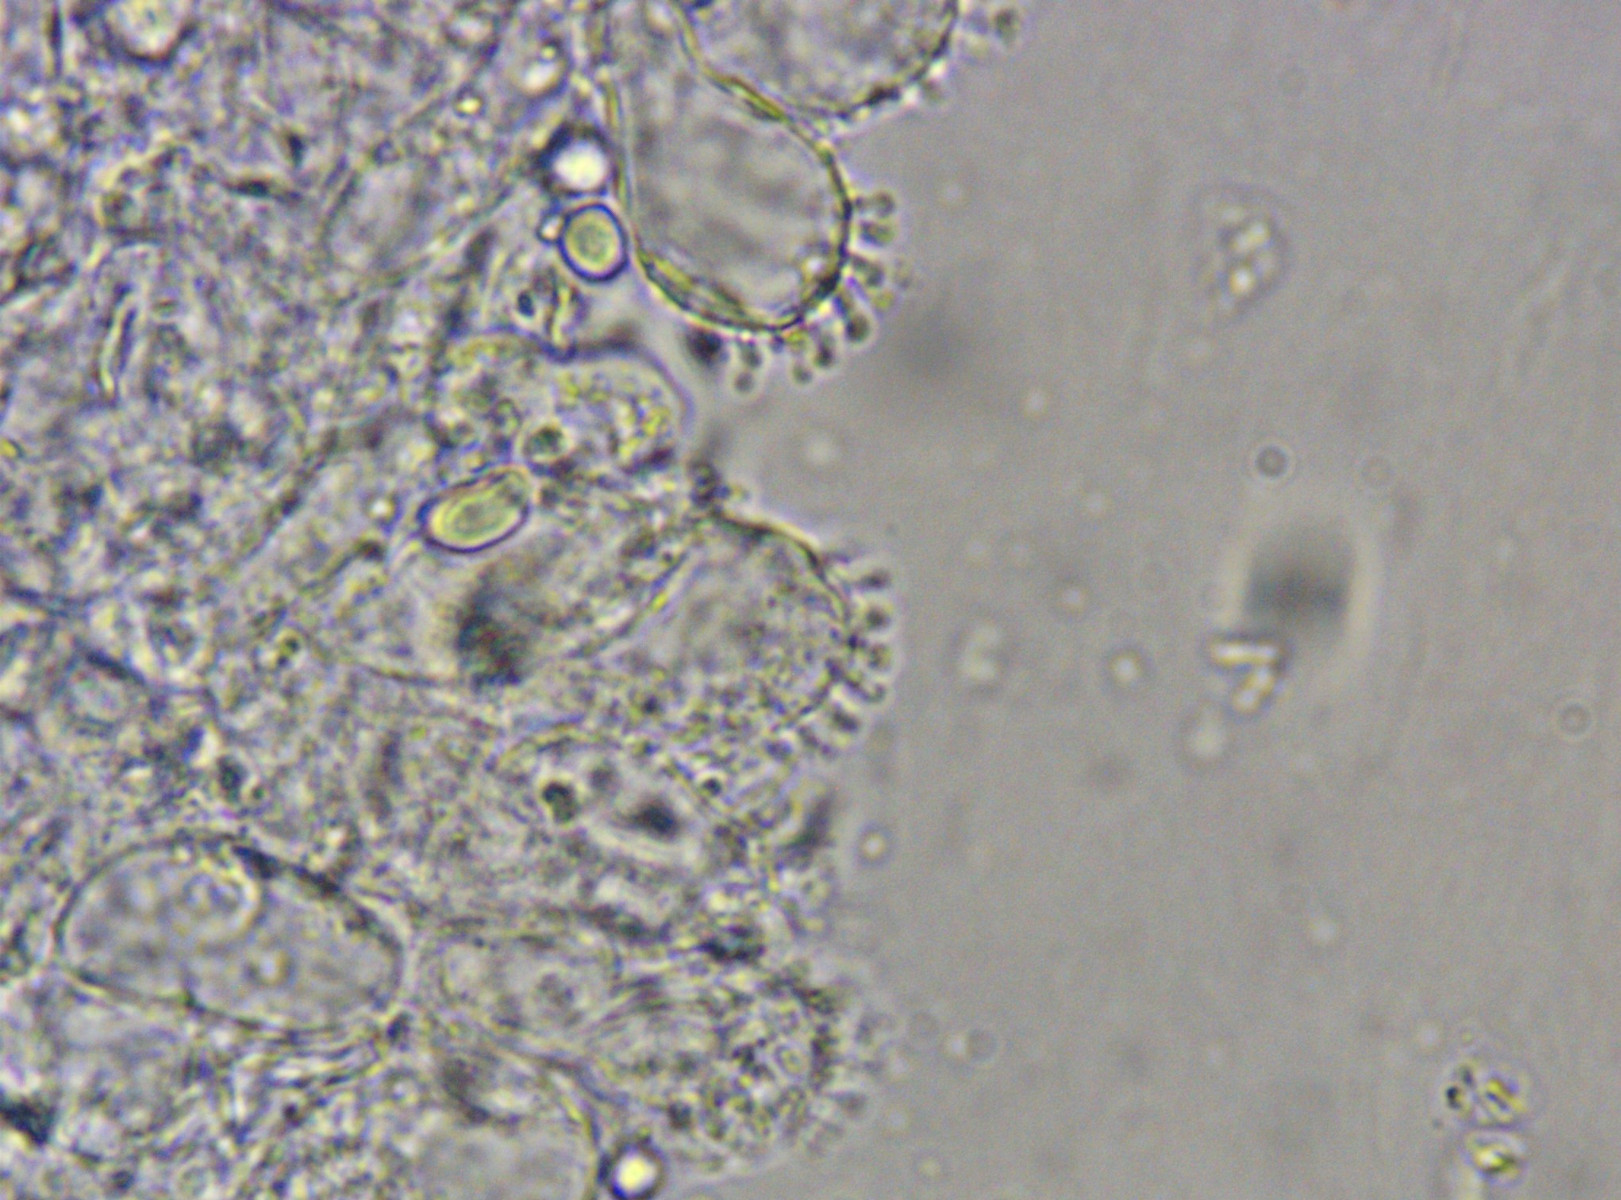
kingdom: Fungi
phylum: Basidiomycota
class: Agaricomycetes
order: Agaricales
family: Mycenaceae
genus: Mycena
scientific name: Mycena
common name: huesvamp
